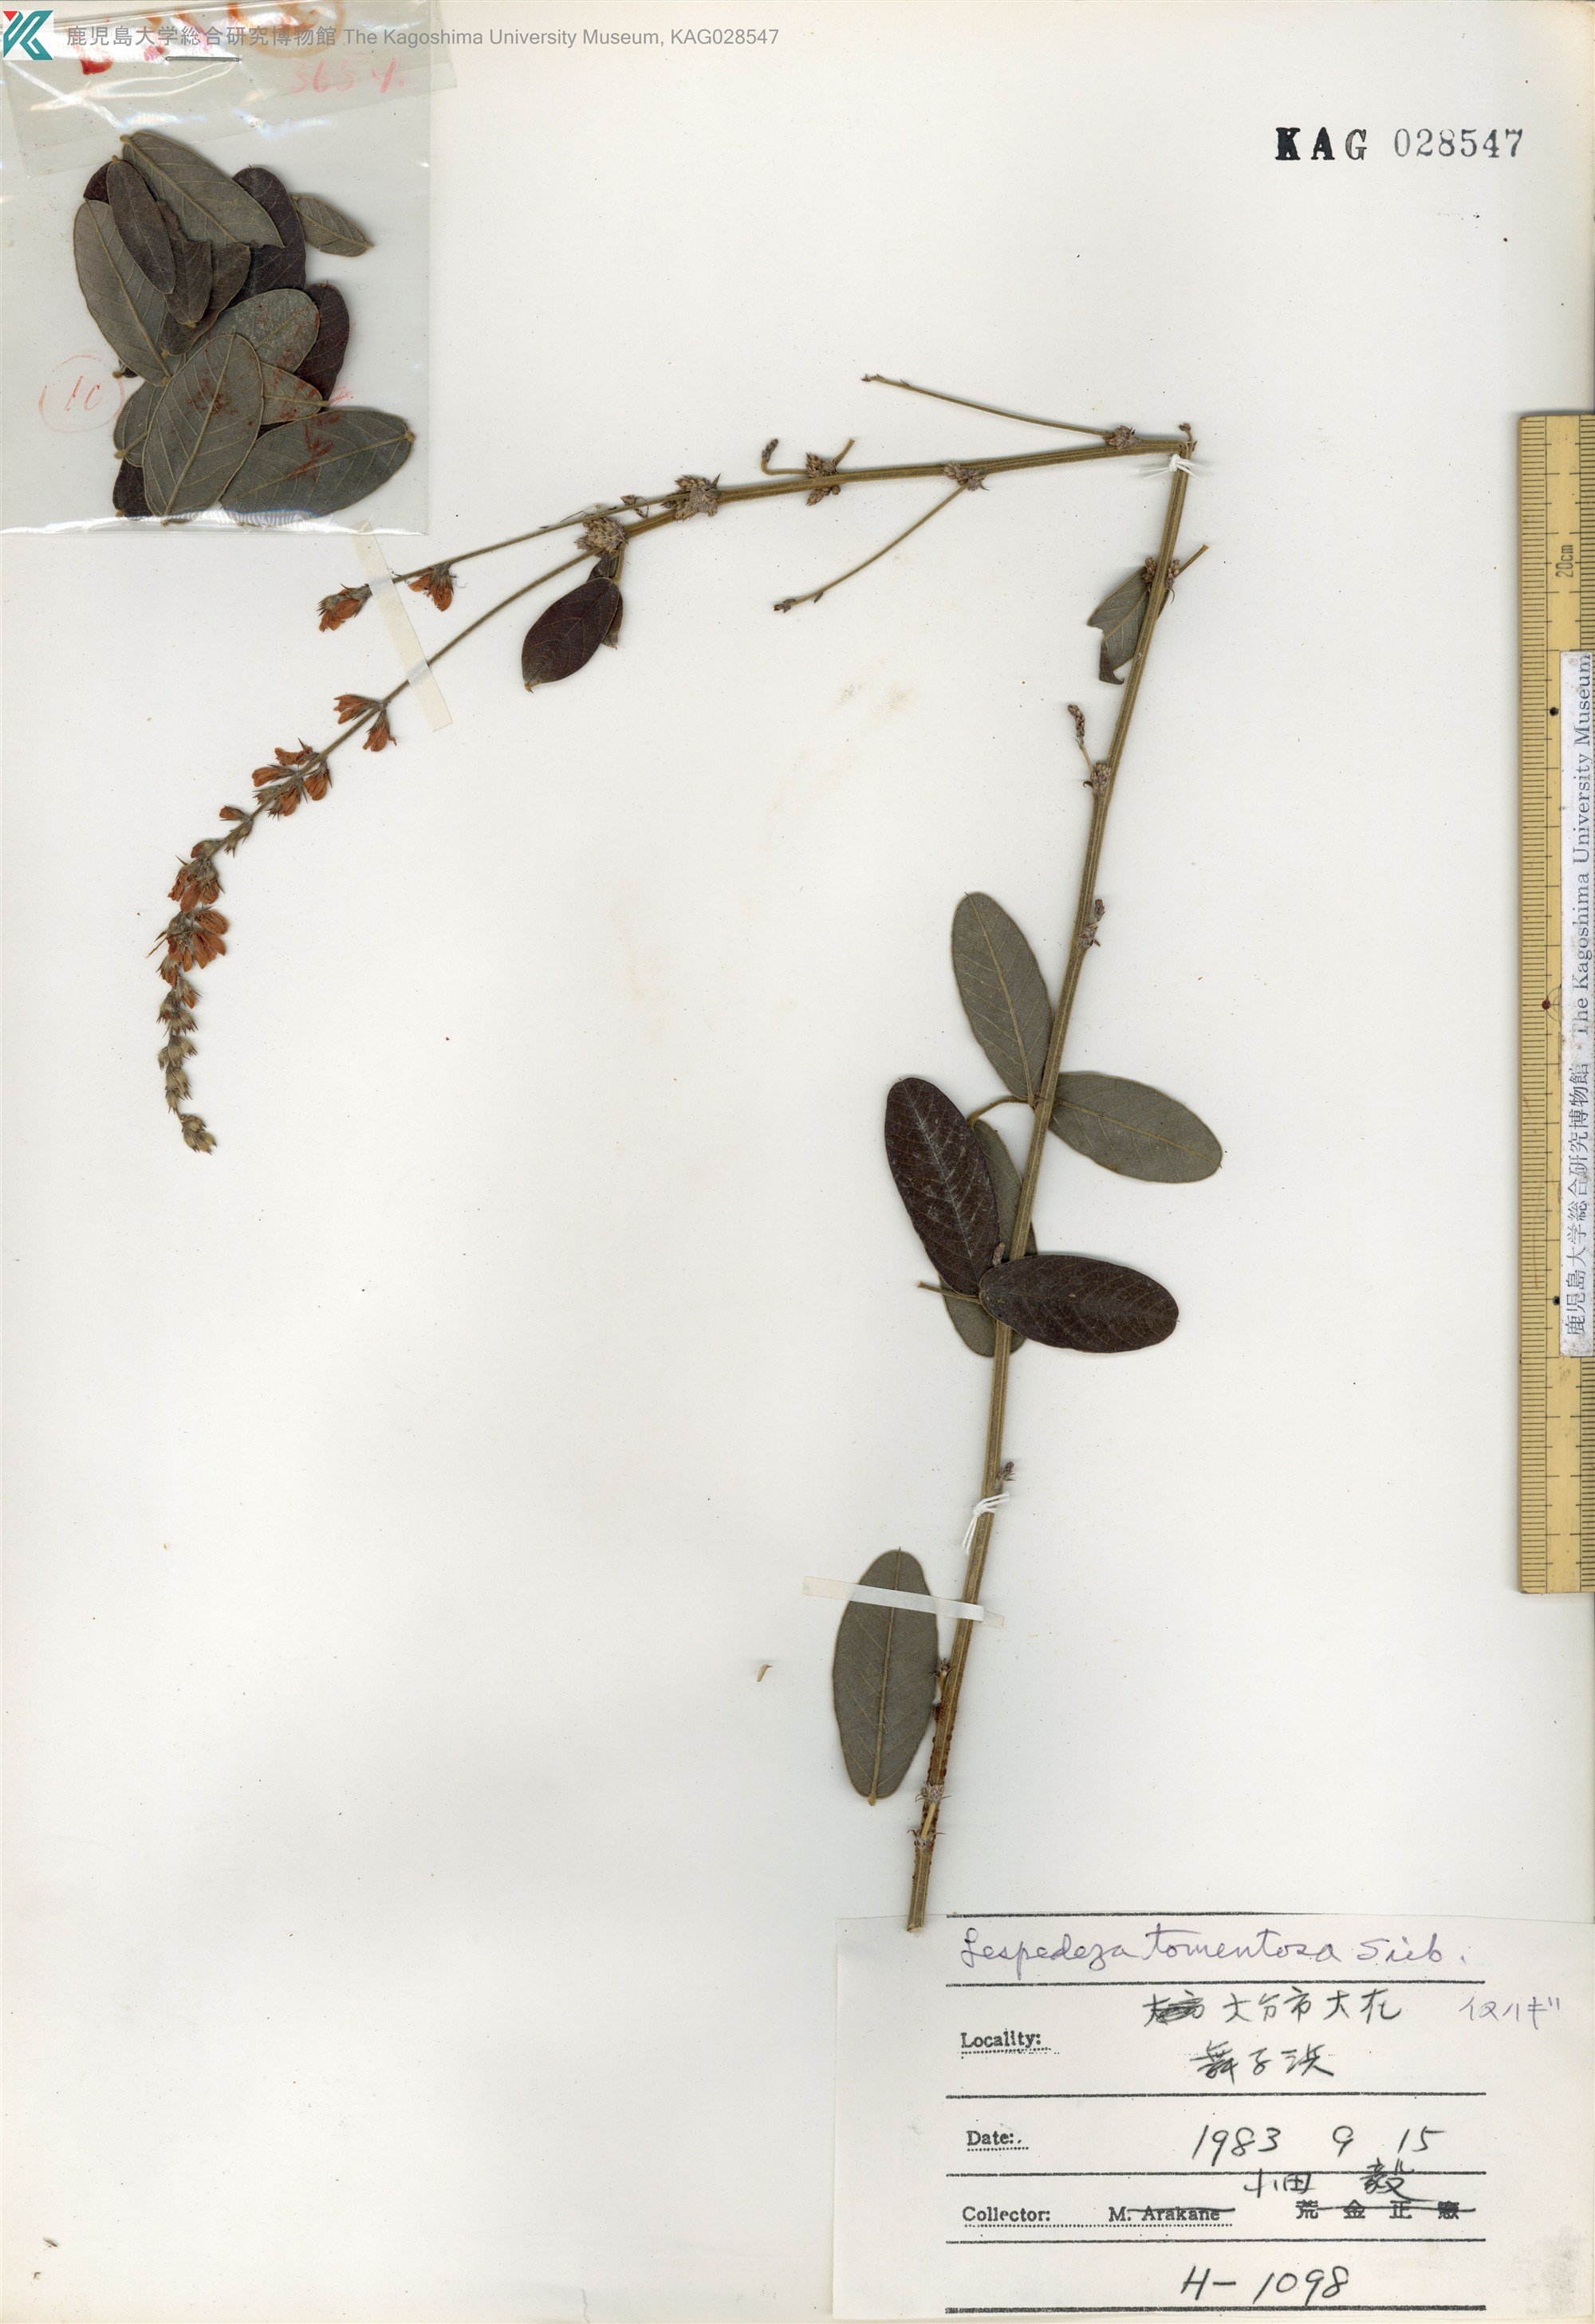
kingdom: Plantae
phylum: Tracheophyta
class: Magnoliopsida
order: Fabales
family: Fabaceae
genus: Lespedeza
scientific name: Lespedeza tomentosa
